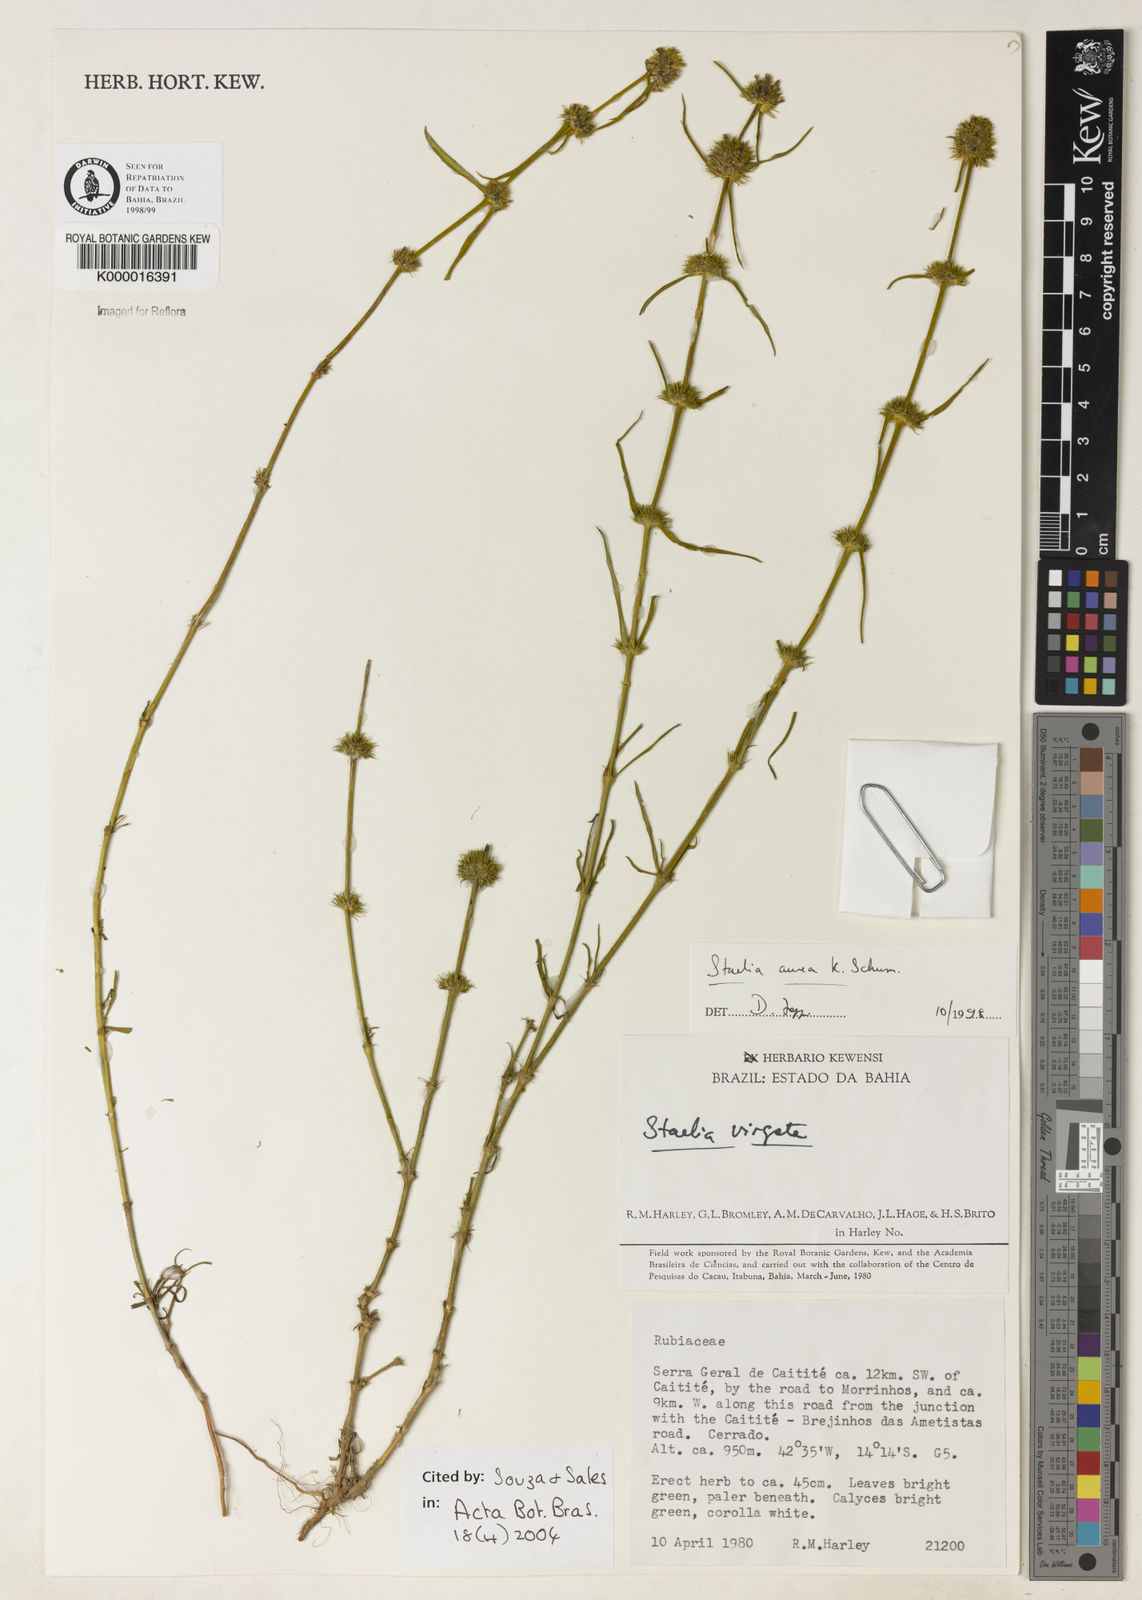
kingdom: Plantae
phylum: Tracheophyta
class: Magnoliopsida
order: Gentianales
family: Rubiaceae
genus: Staelia
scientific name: Staelia aurea
